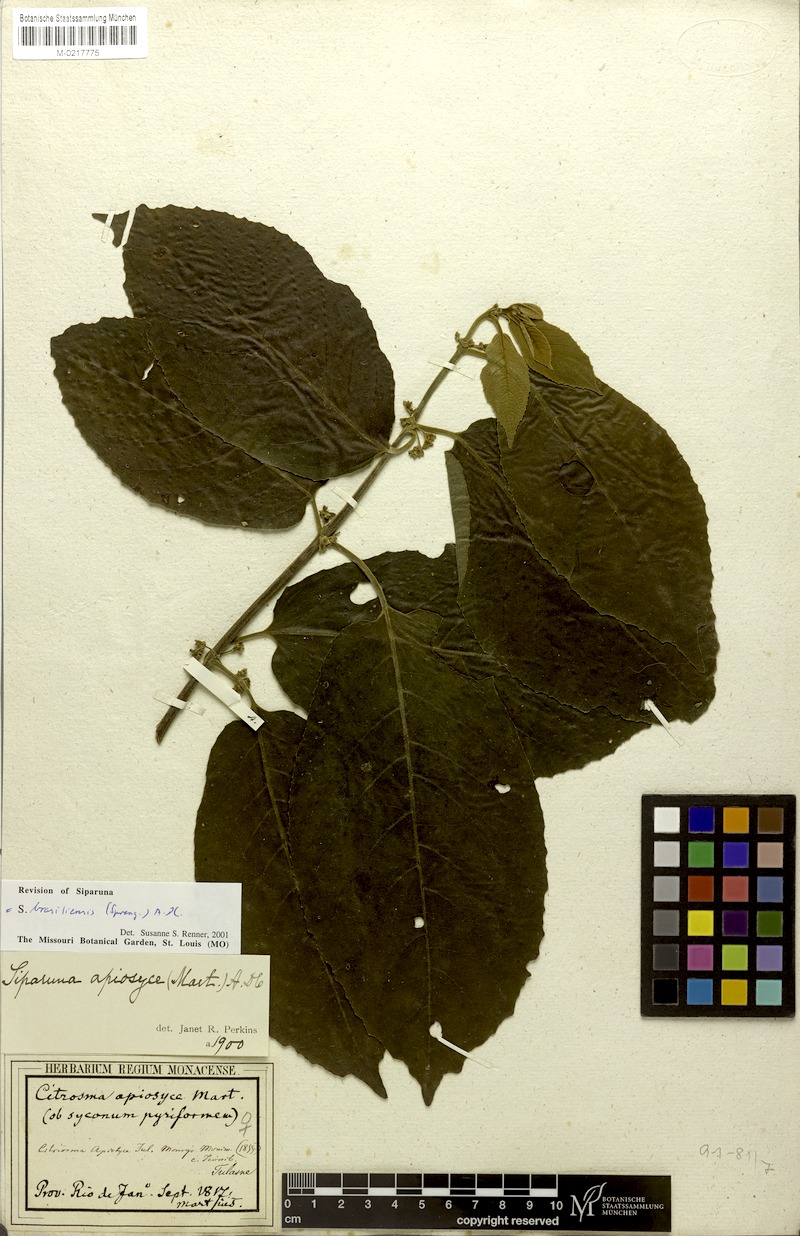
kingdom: Plantae
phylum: Tracheophyta
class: Magnoliopsida
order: Laurales
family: Siparunaceae
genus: Siparuna
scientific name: Siparuna brasiliensis
